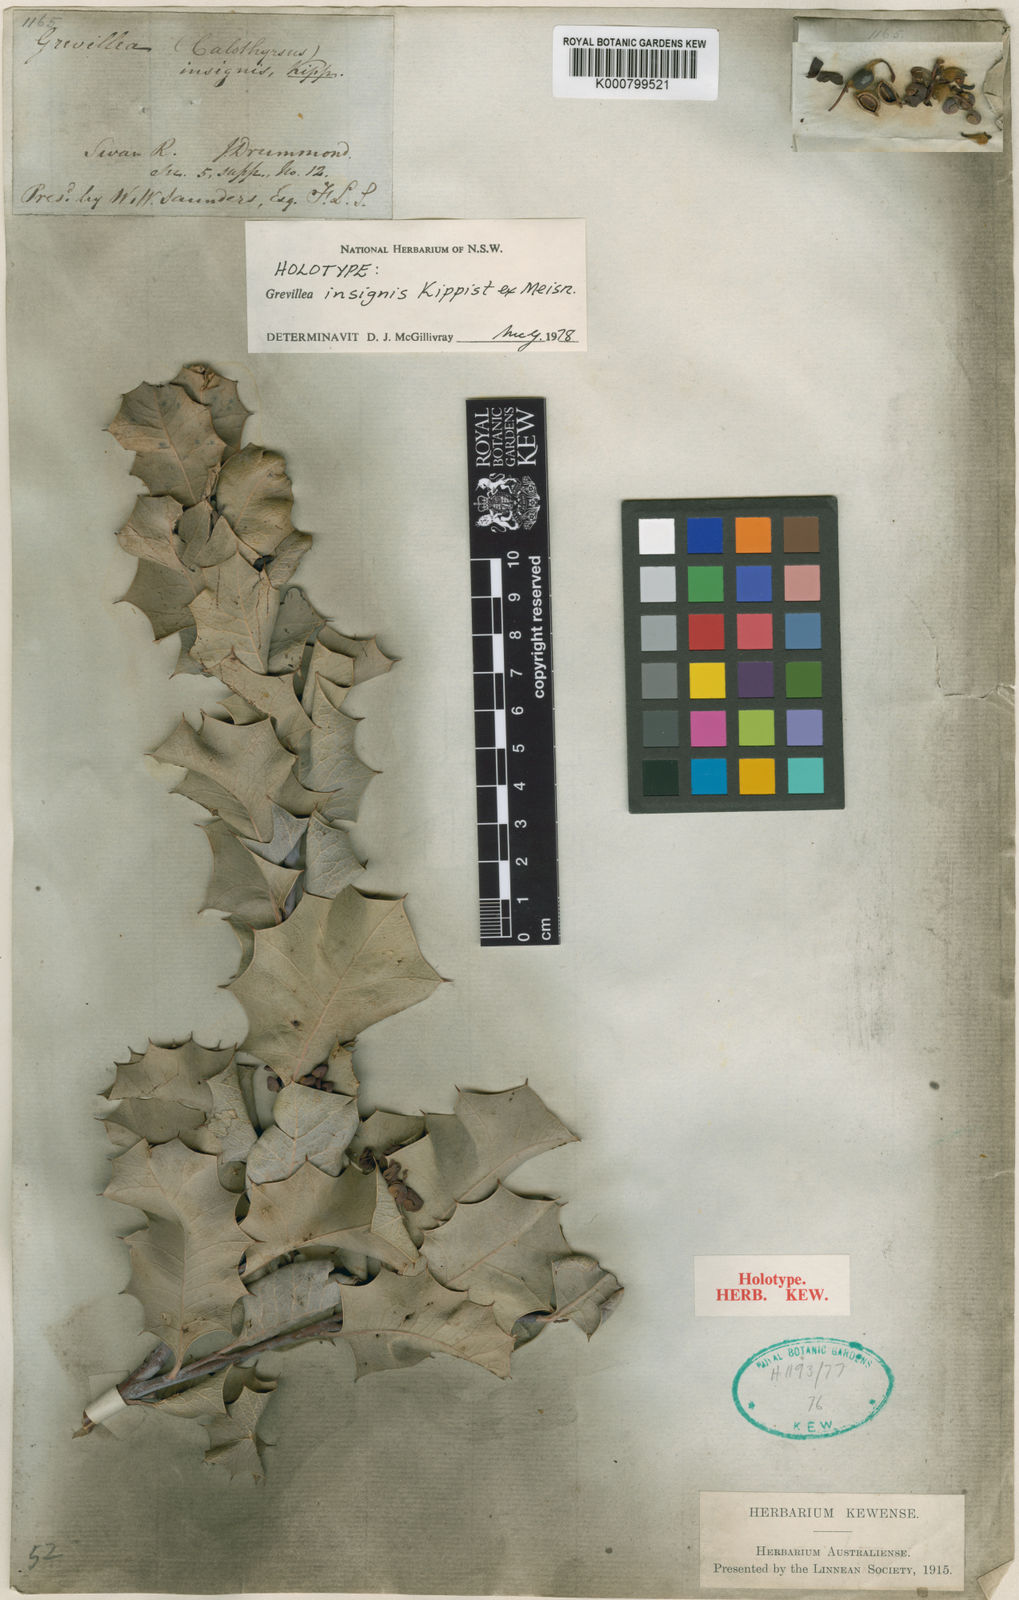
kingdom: Plantae
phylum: Tracheophyta
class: Magnoliopsida
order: Proteales
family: Proteaceae
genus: Grevillea
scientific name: Grevillea insignis
